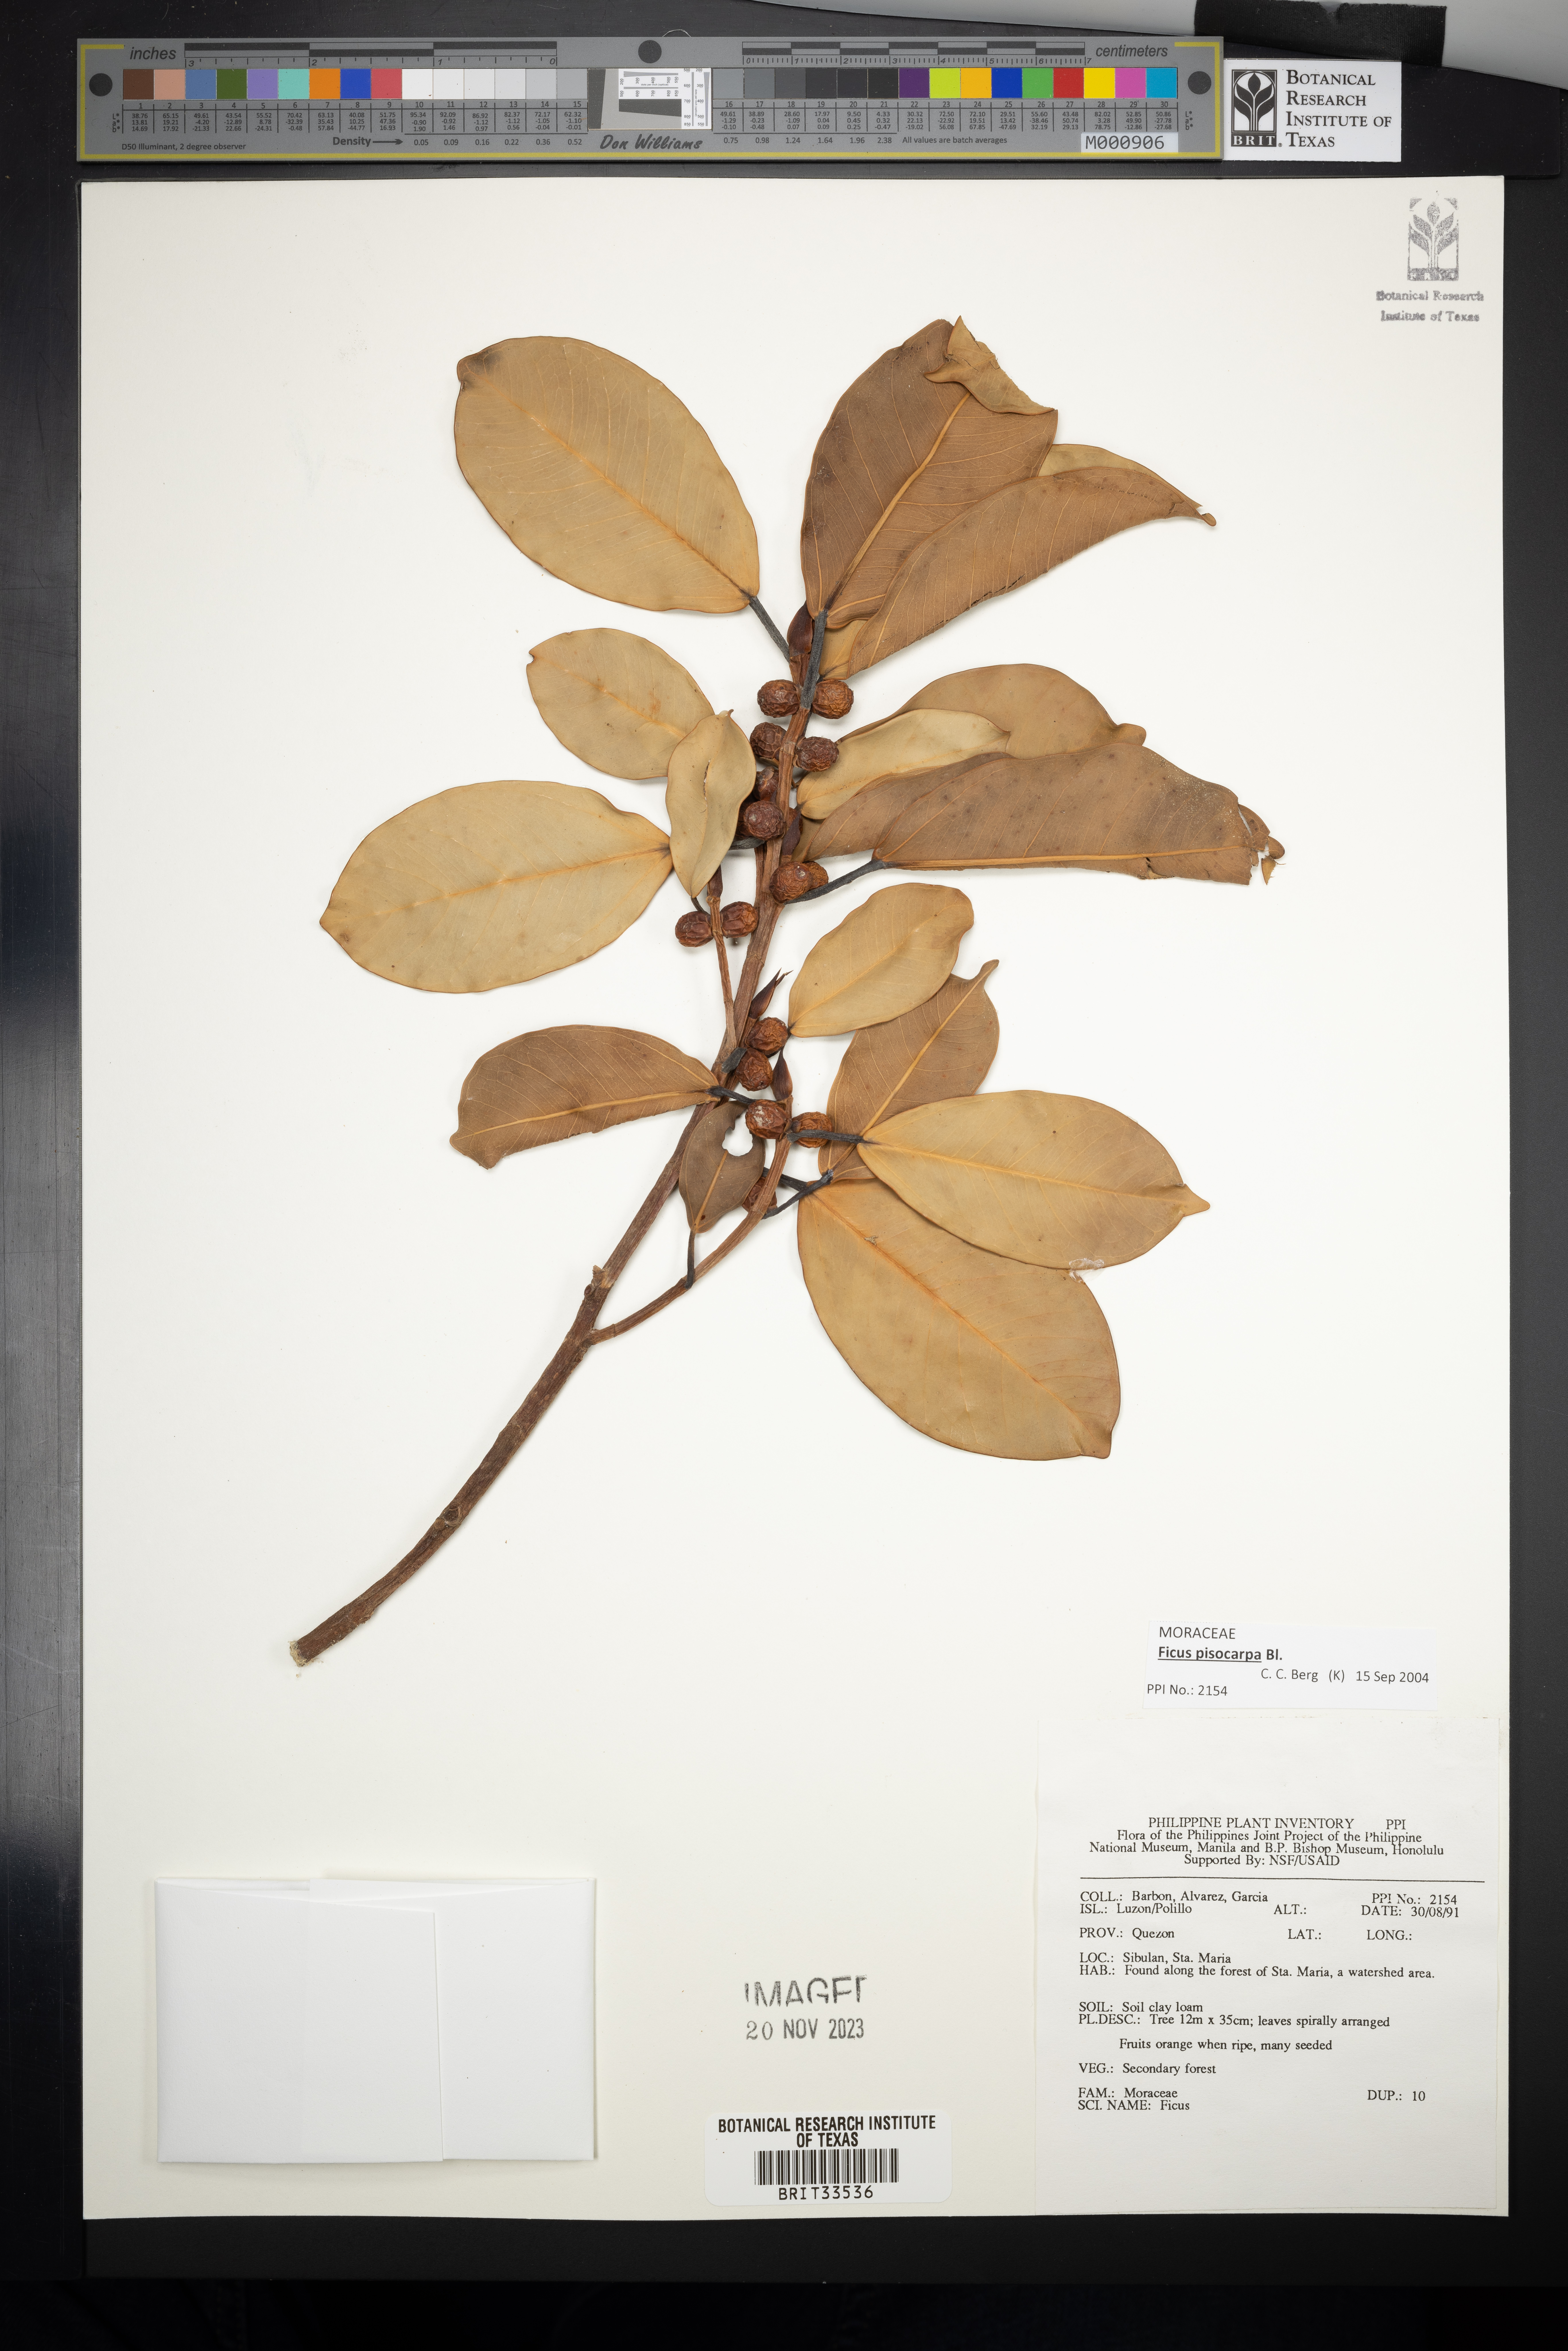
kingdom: Plantae
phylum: Tracheophyta
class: Magnoliopsida
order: Rosales
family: Moraceae
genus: Ficus
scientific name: Ficus
